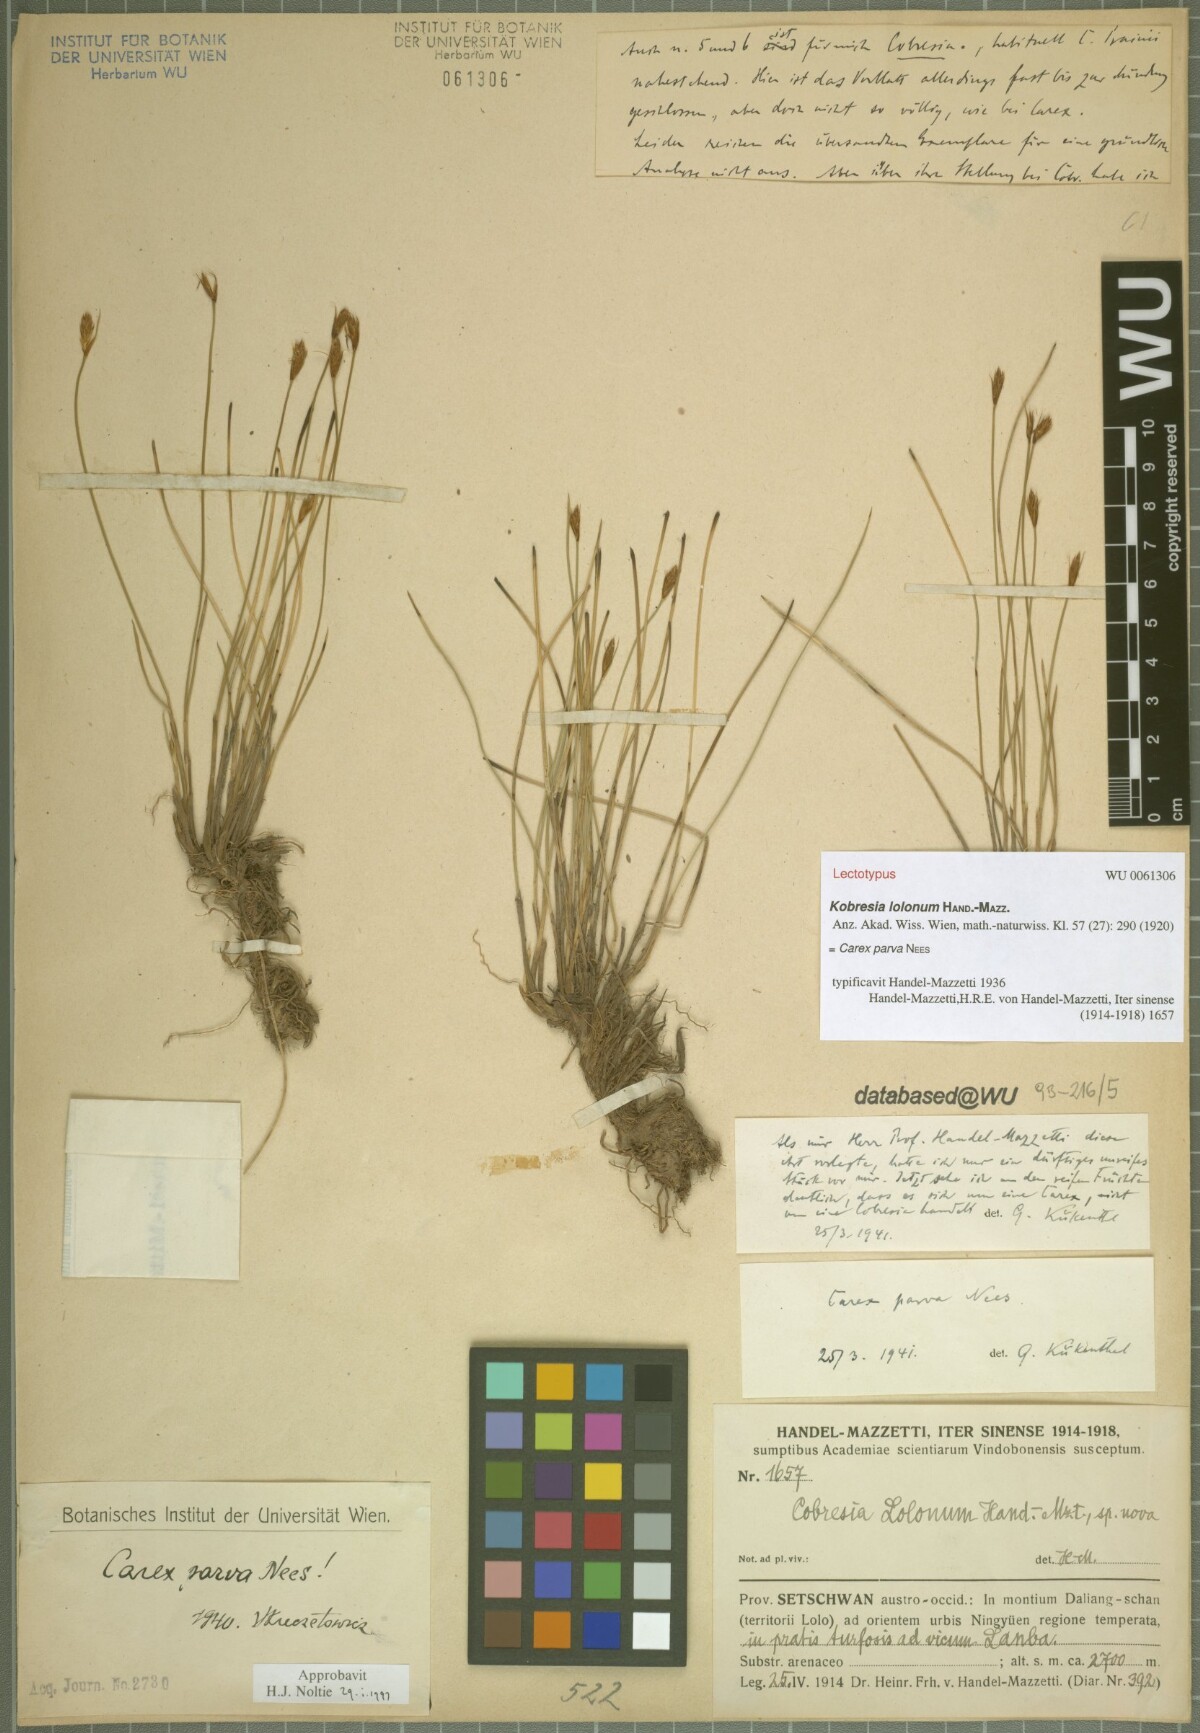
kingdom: Plantae
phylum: Tracheophyta
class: Liliopsida
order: Poales
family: Cyperaceae
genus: Carex
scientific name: Carex parva
